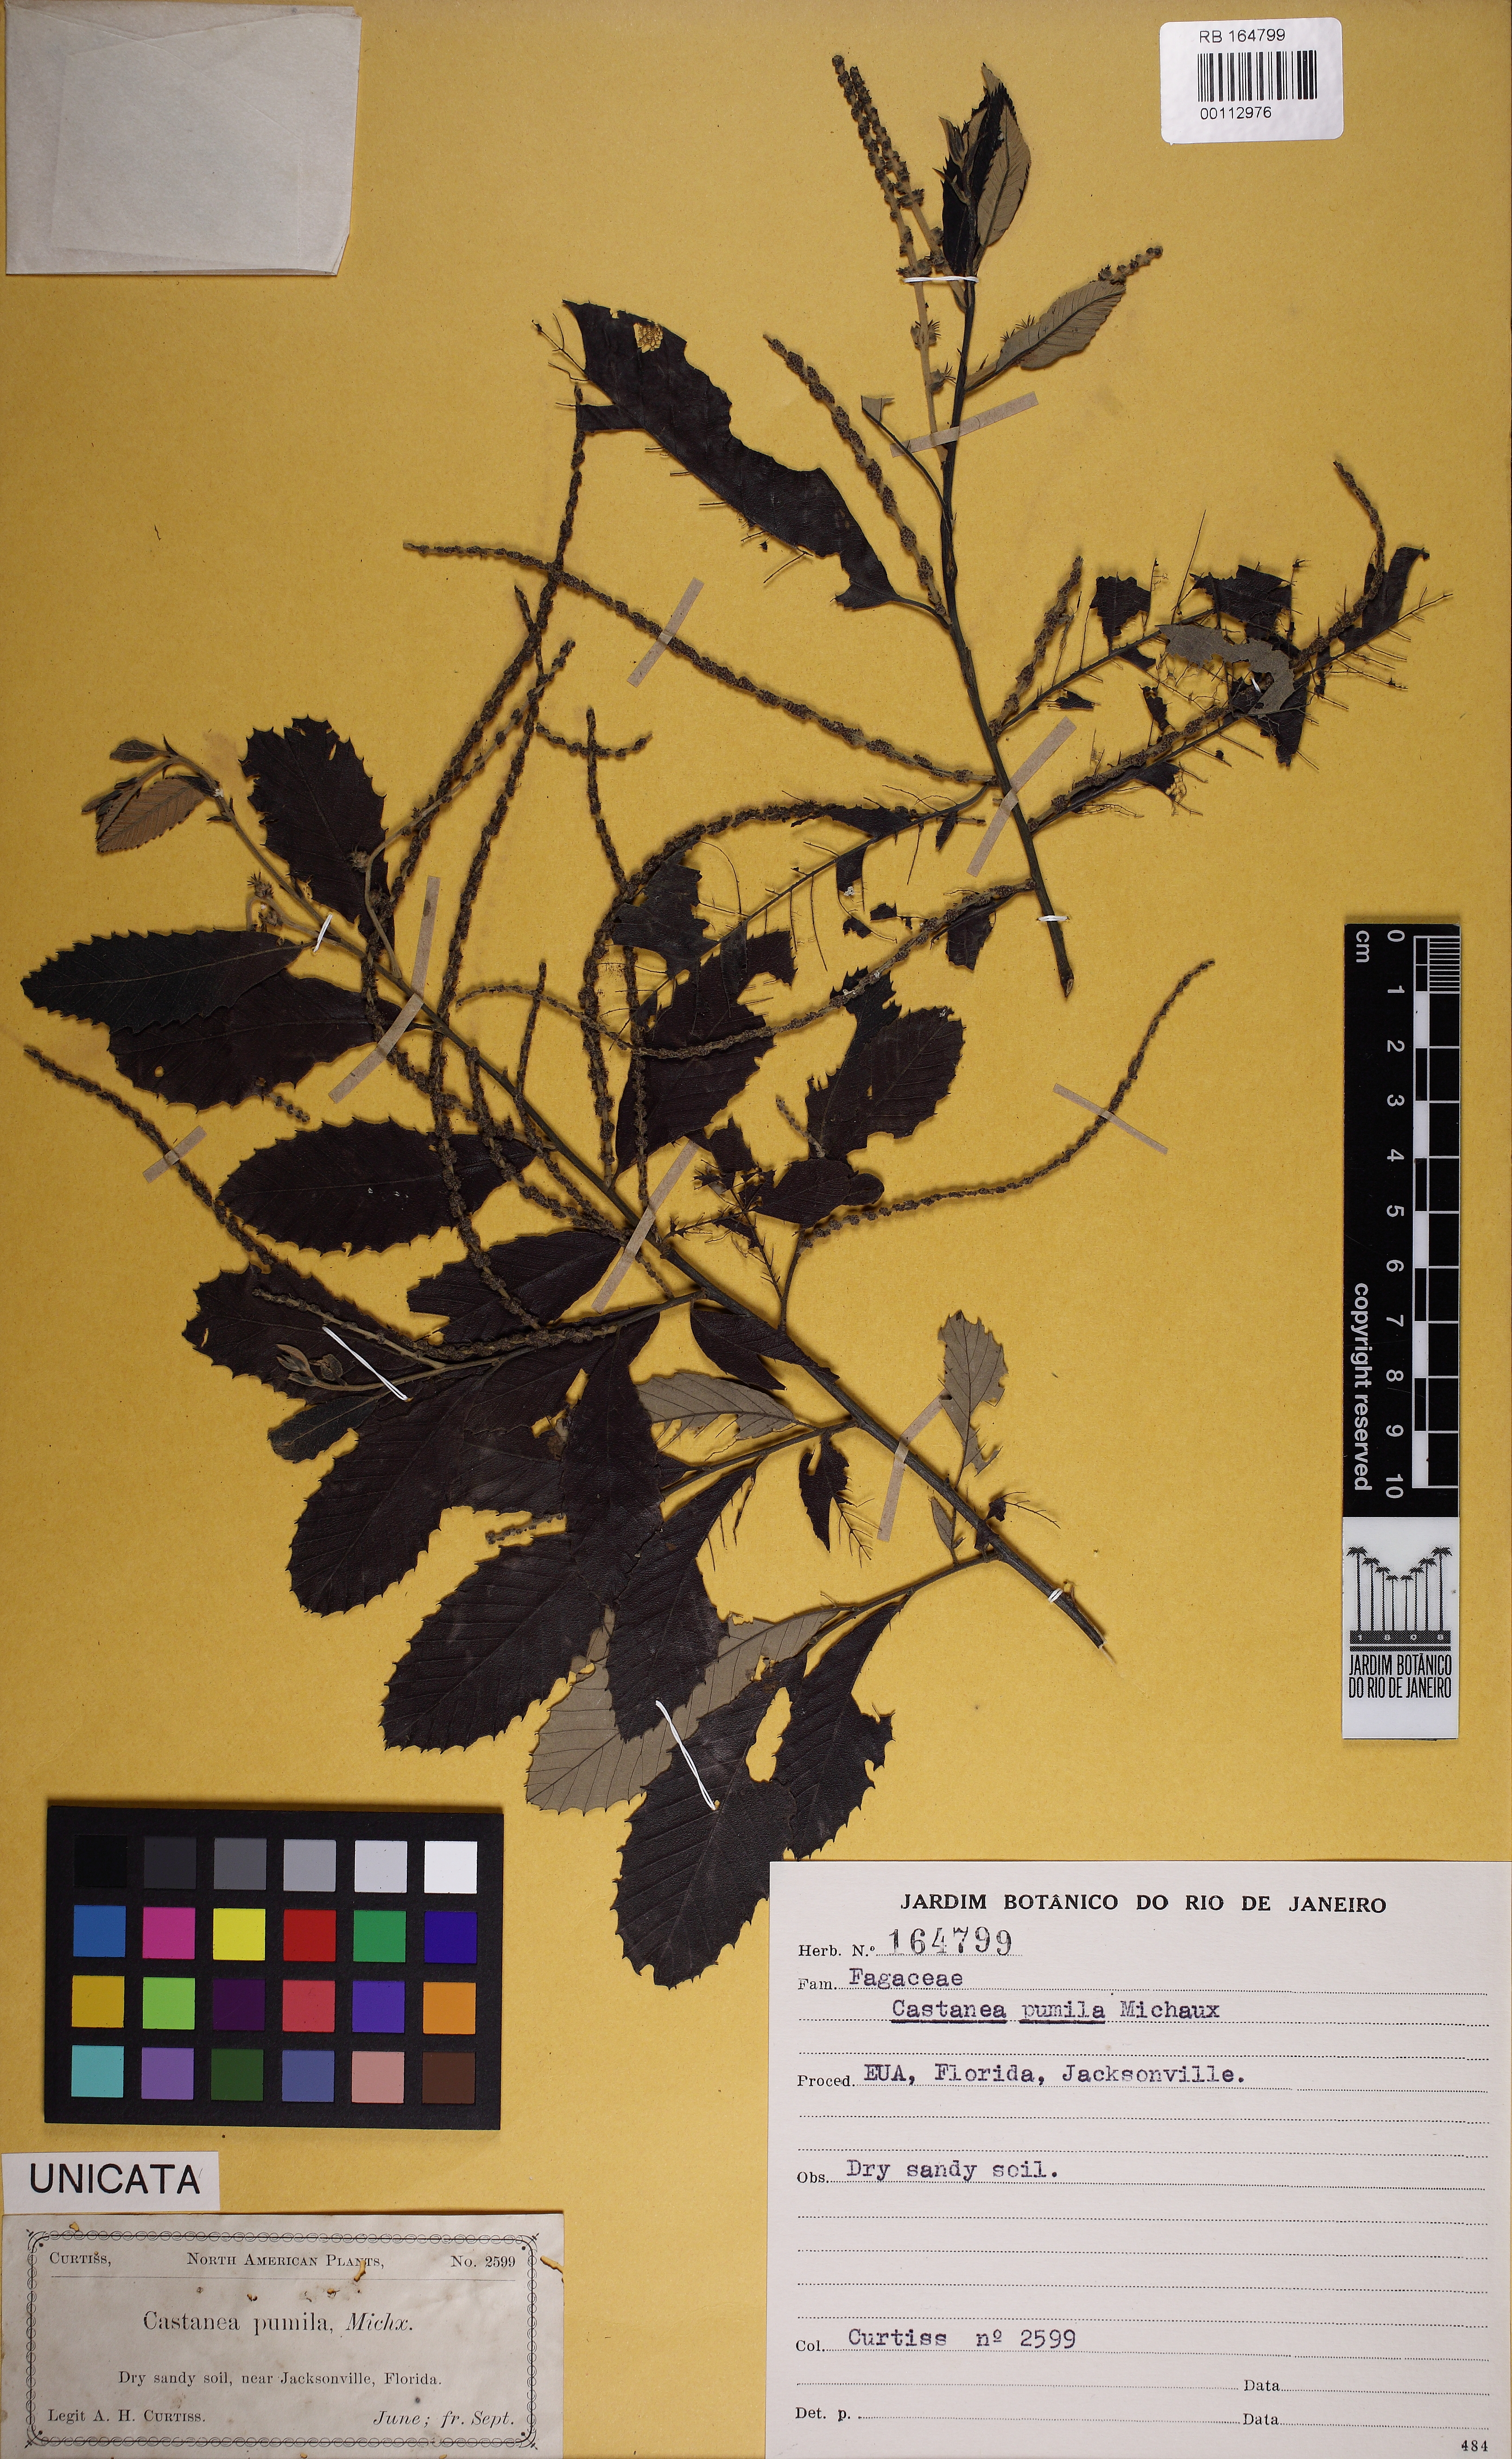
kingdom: Plantae
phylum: Tracheophyta
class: Magnoliopsida
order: Fagales
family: Fagaceae
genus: Castanea
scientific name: Castanea pumila
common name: Chinkapin
